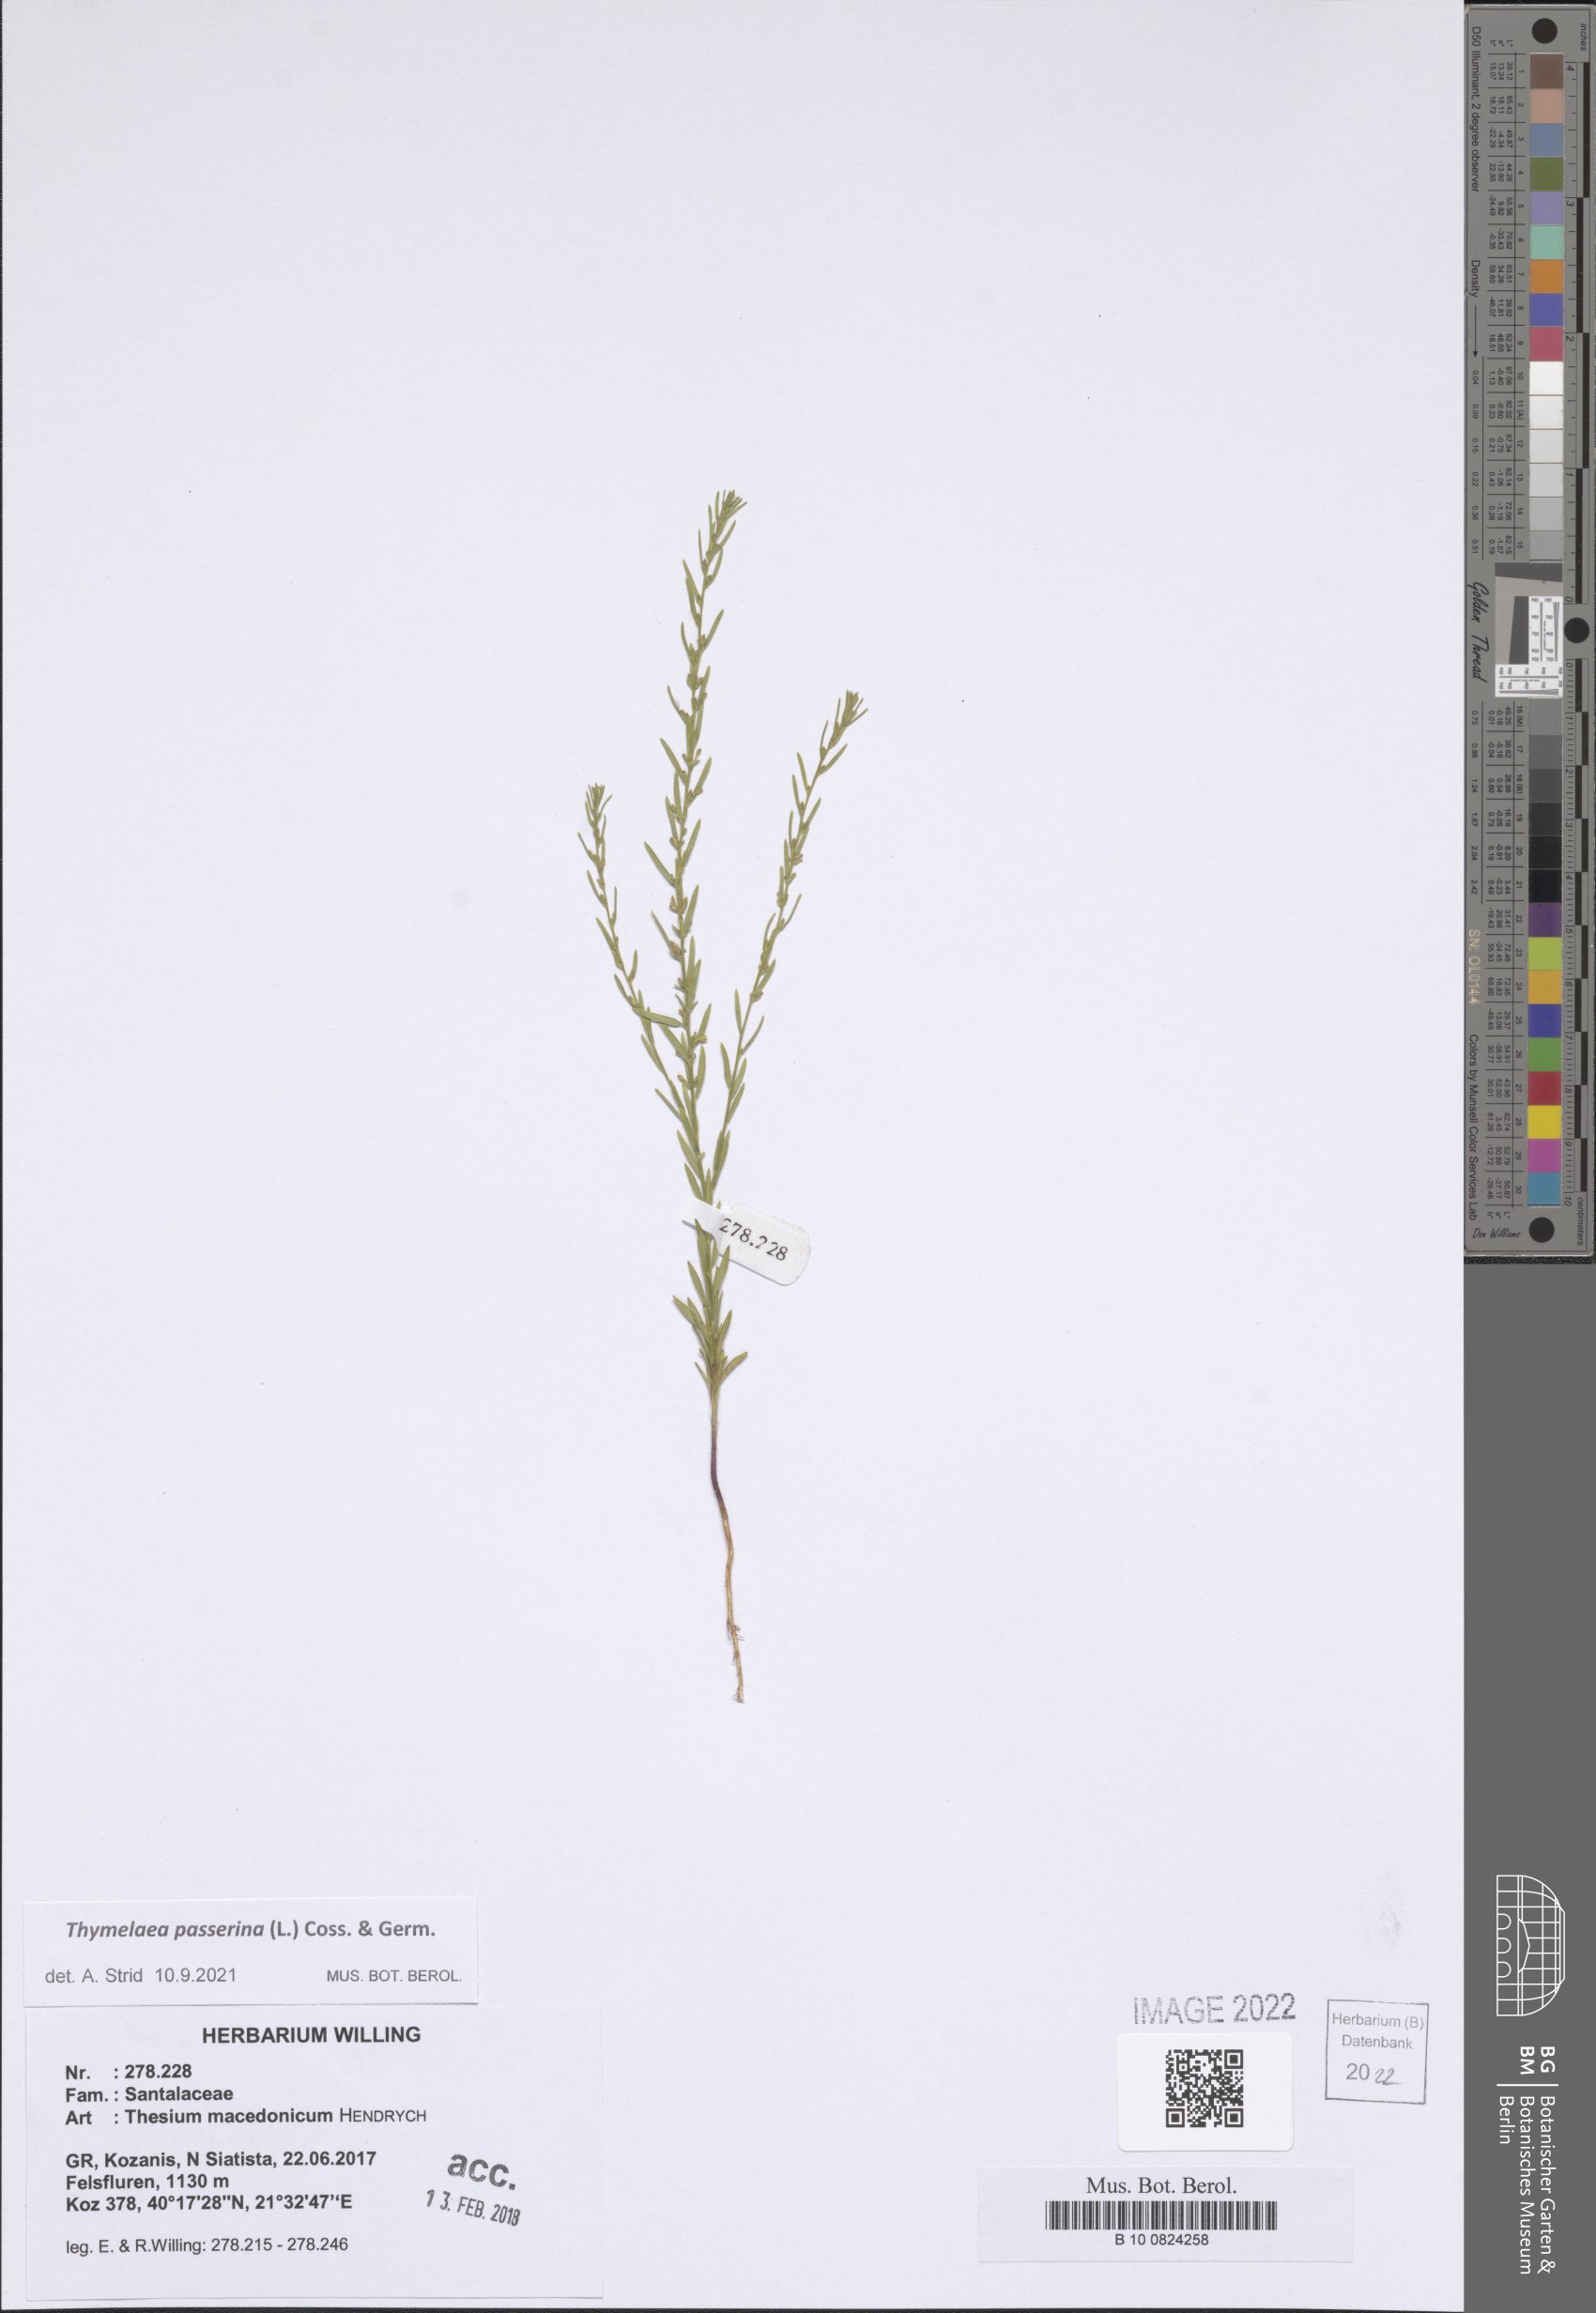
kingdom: Plantae
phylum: Tracheophyta
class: Magnoliopsida
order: Malvales
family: Thymelaeaceae
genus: Thymelaea
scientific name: Thymelaea passerina
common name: Annual thymelaea
